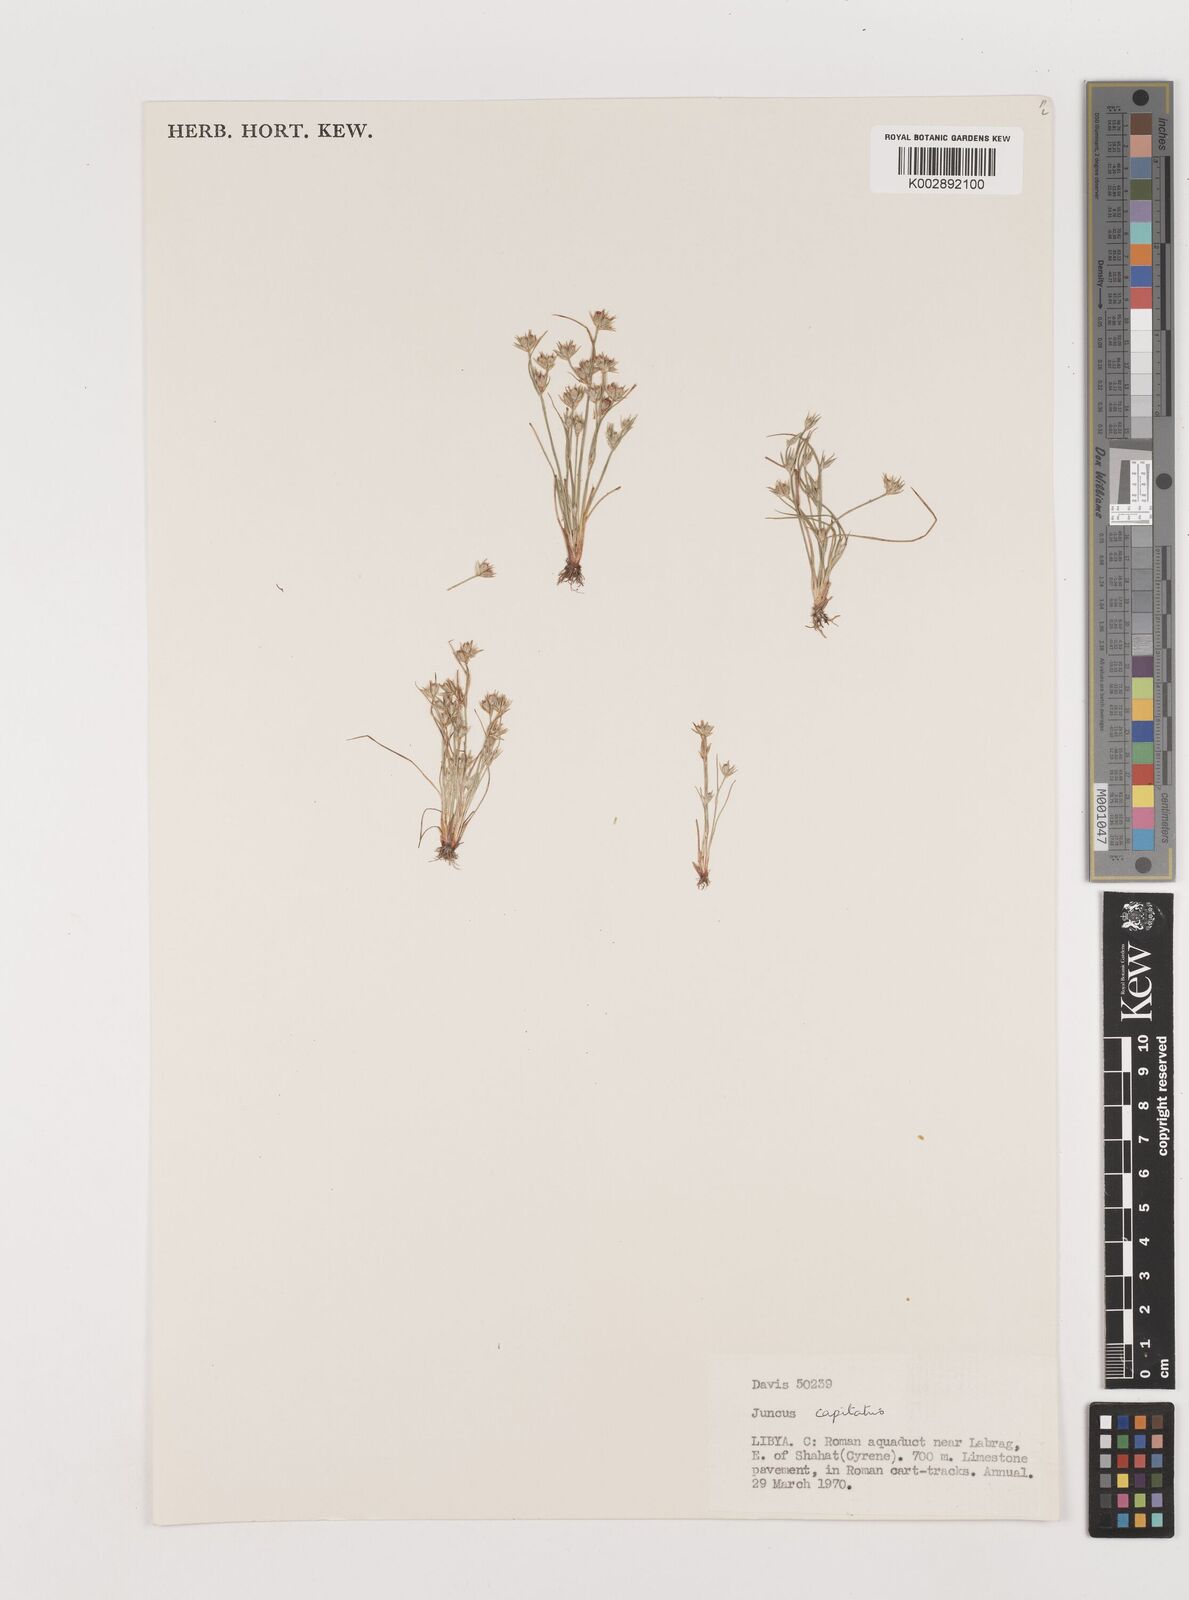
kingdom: Plantae
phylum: Tracheophyta
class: Liliopsida
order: Poales
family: Juncaceae
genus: Juncus
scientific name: Juncus capitatus
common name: Dwarf rush
